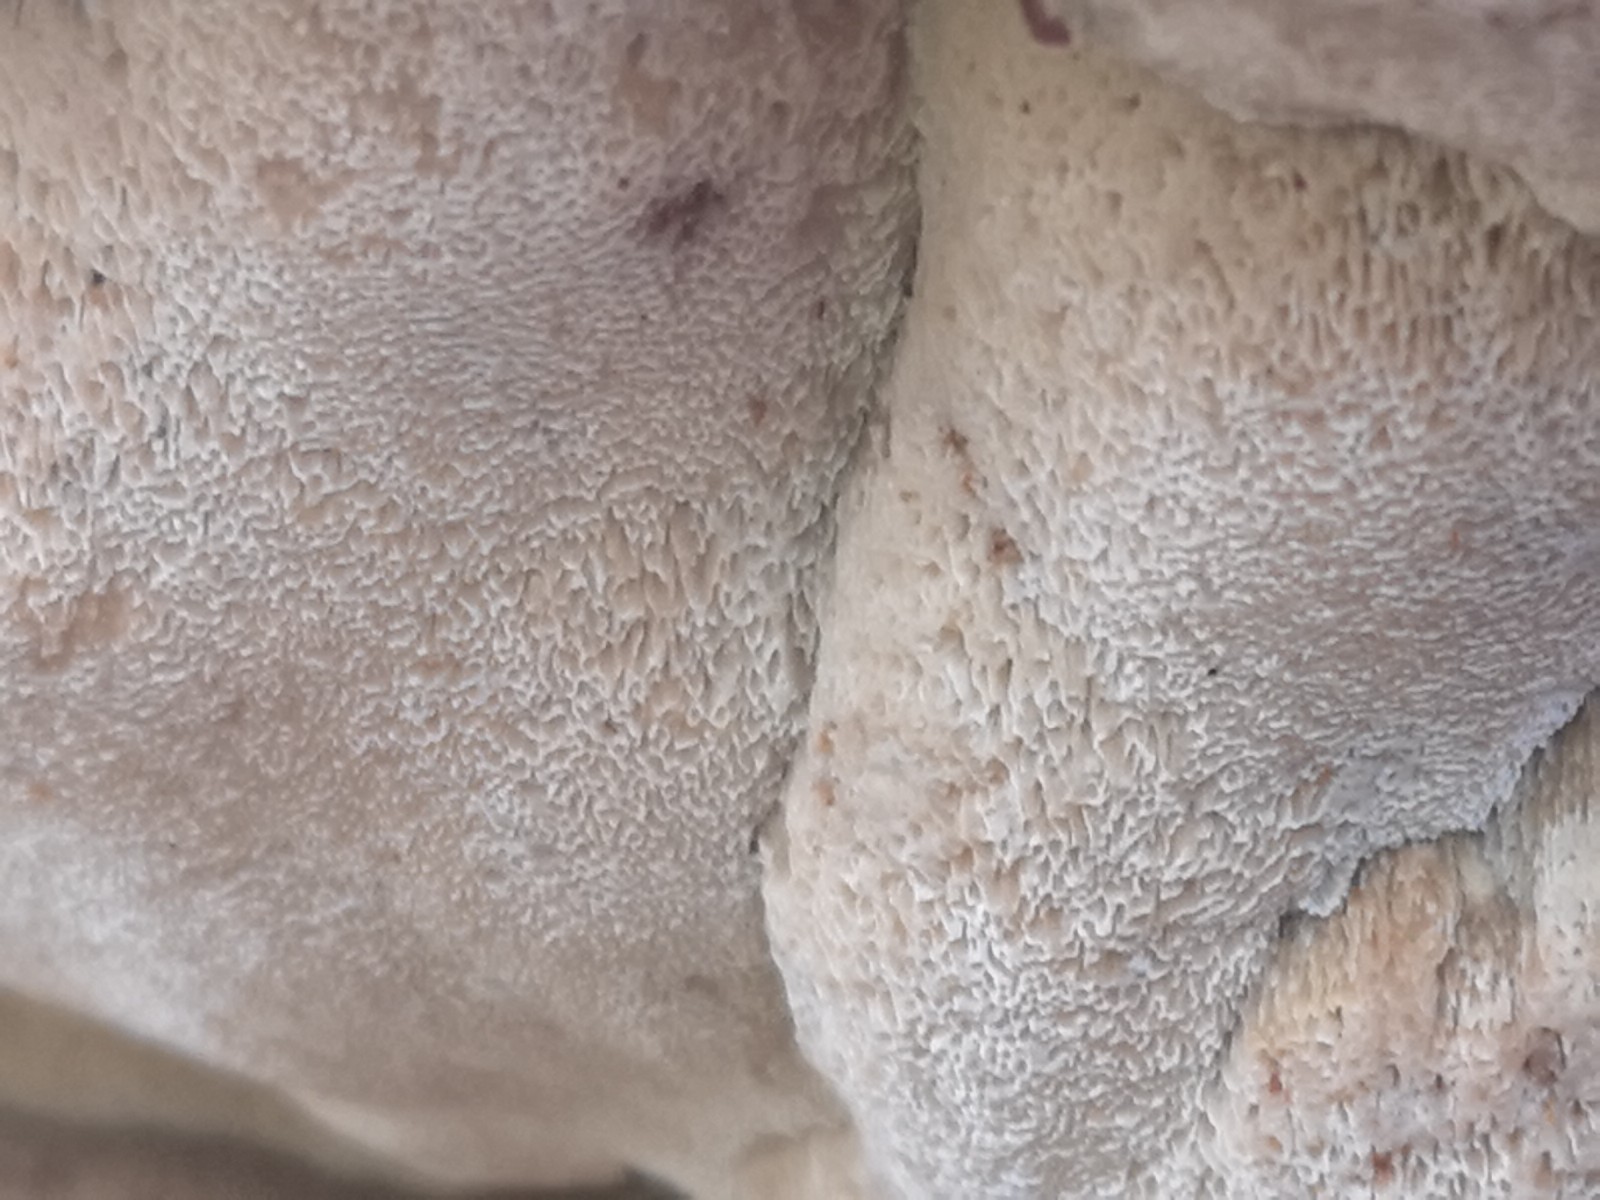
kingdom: Fungi
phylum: Basidiomycota
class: Agaricomycetes
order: Polyporales
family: Ischnodermataceae
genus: Ischnoderma
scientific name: Ischnoderma resinosum
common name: løv-tjæreporesvamp
